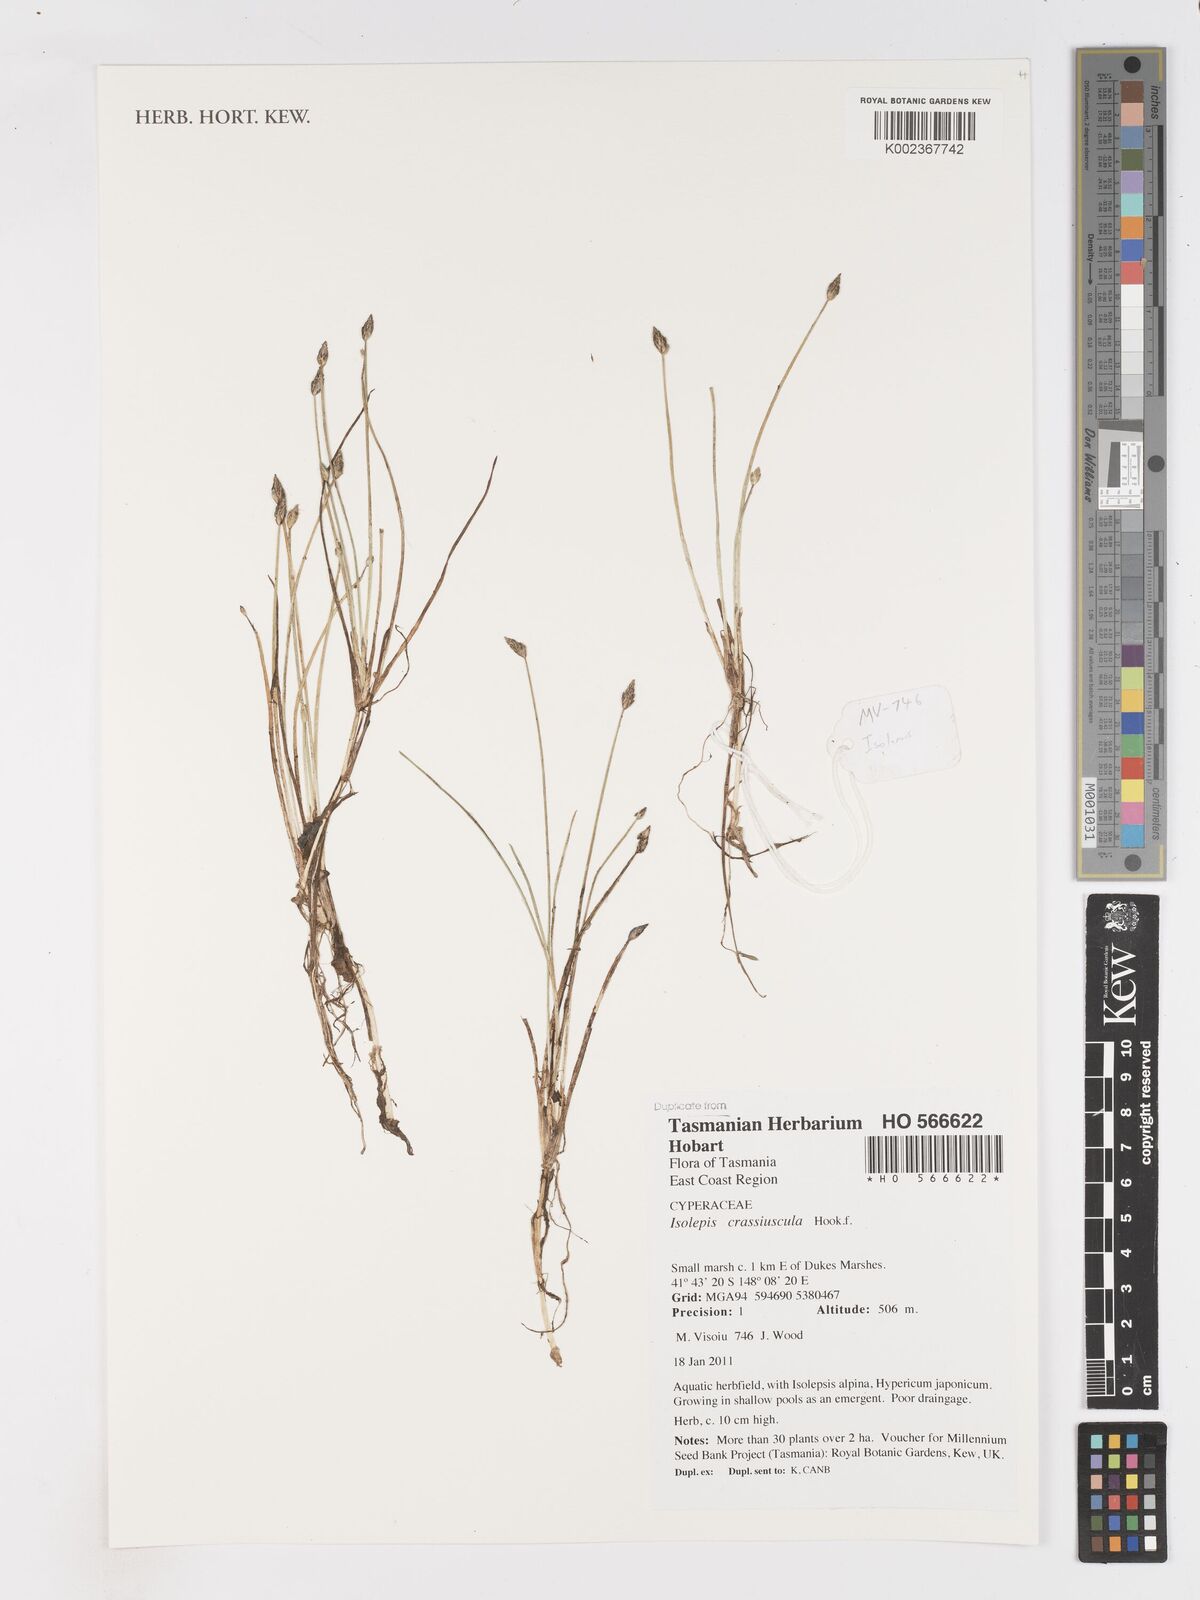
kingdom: Plantae
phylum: Tracheophyta
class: Liliopsida
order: Poales
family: Cyperaceae
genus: Isolepis
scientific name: Isolepis crassiuscula
